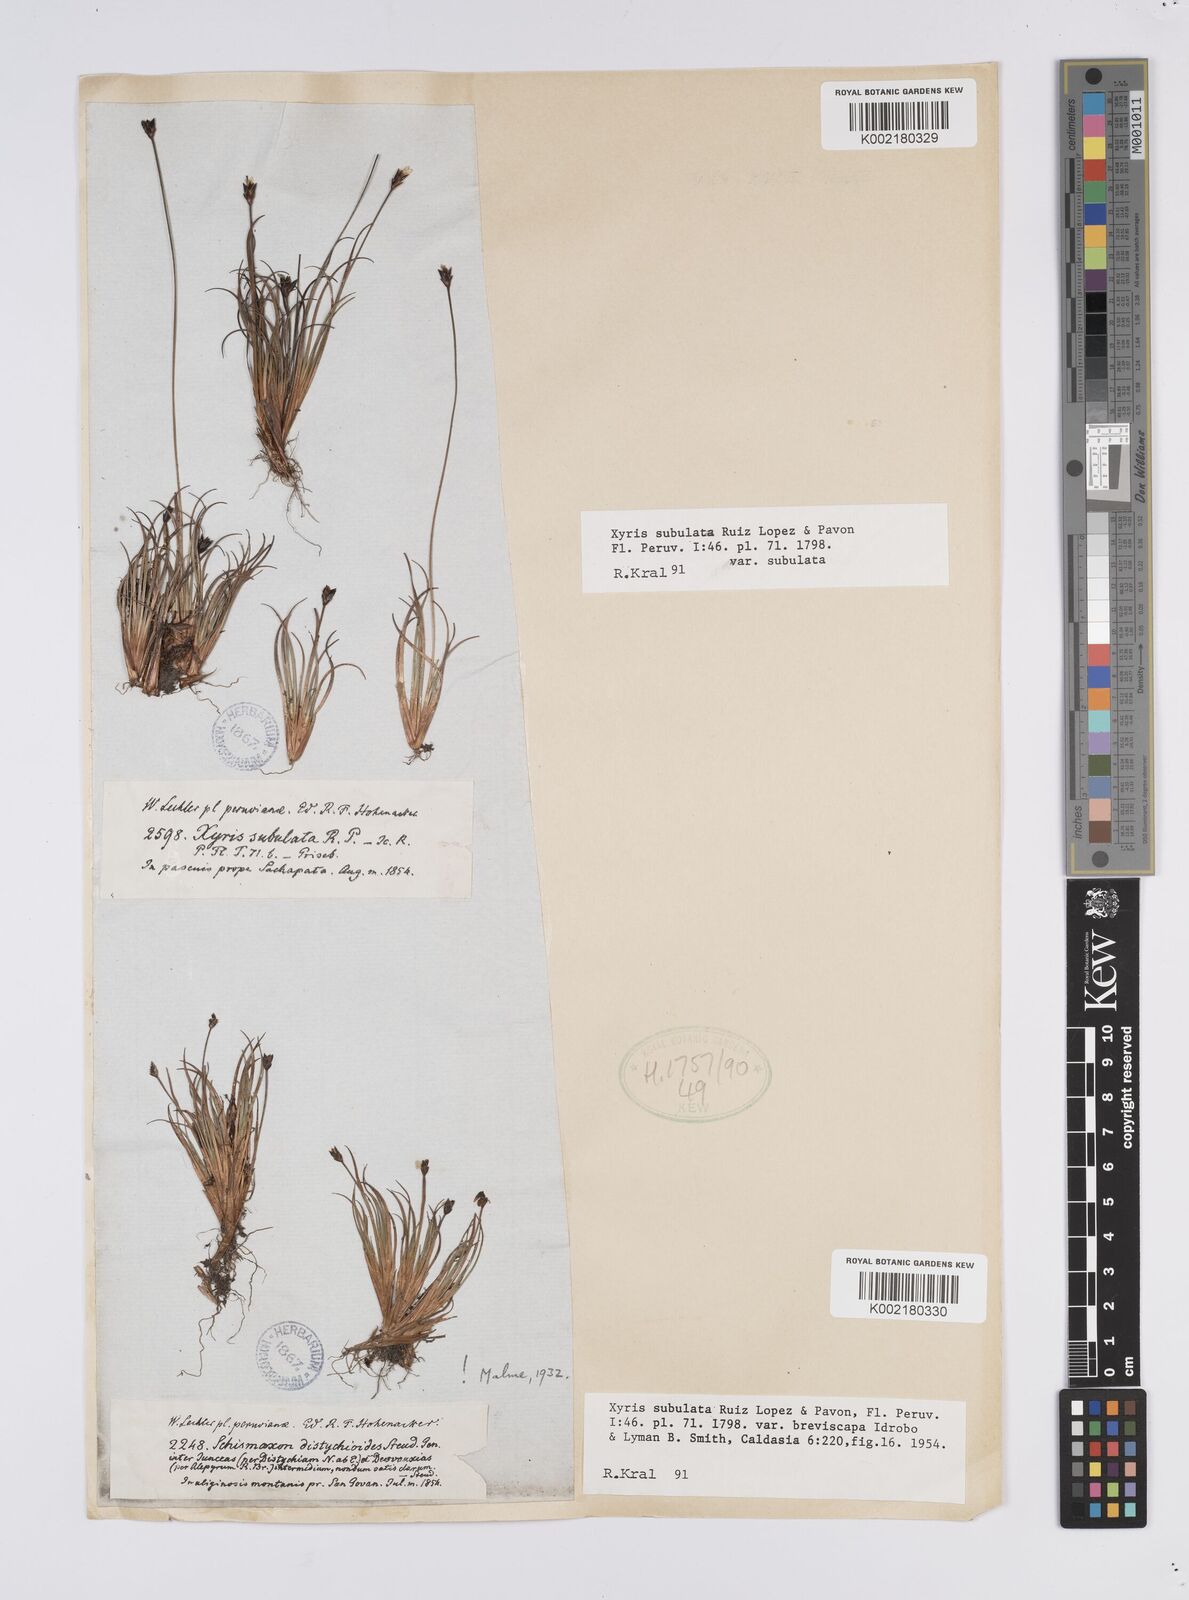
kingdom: Plantae
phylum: Tracheophyta
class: Liliopsida
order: Poales
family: Xyridaceae
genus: Xyris
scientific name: Xyris subulata
